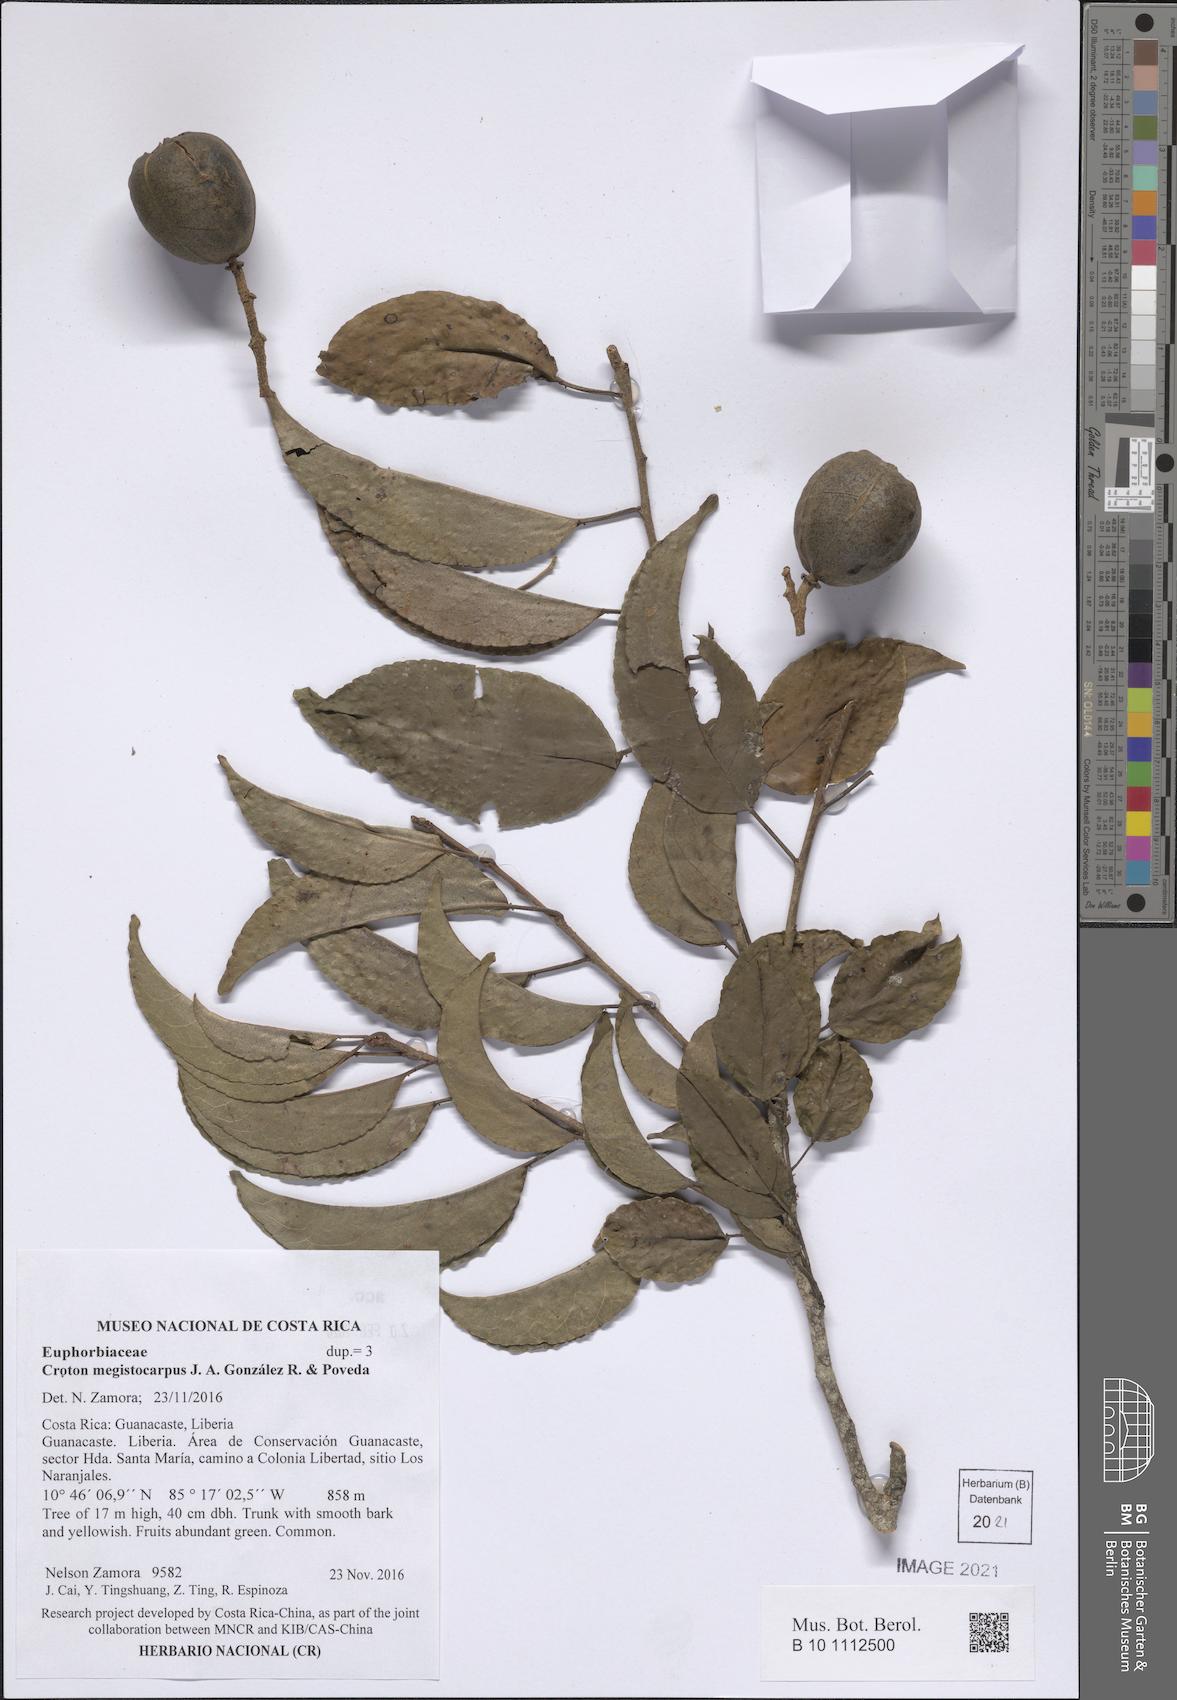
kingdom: Plantae
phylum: Tracheophyta
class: Magnoliopsida
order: Malpighiales
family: Euphorbiaceae
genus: Croton
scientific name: Croton megistocarpus
